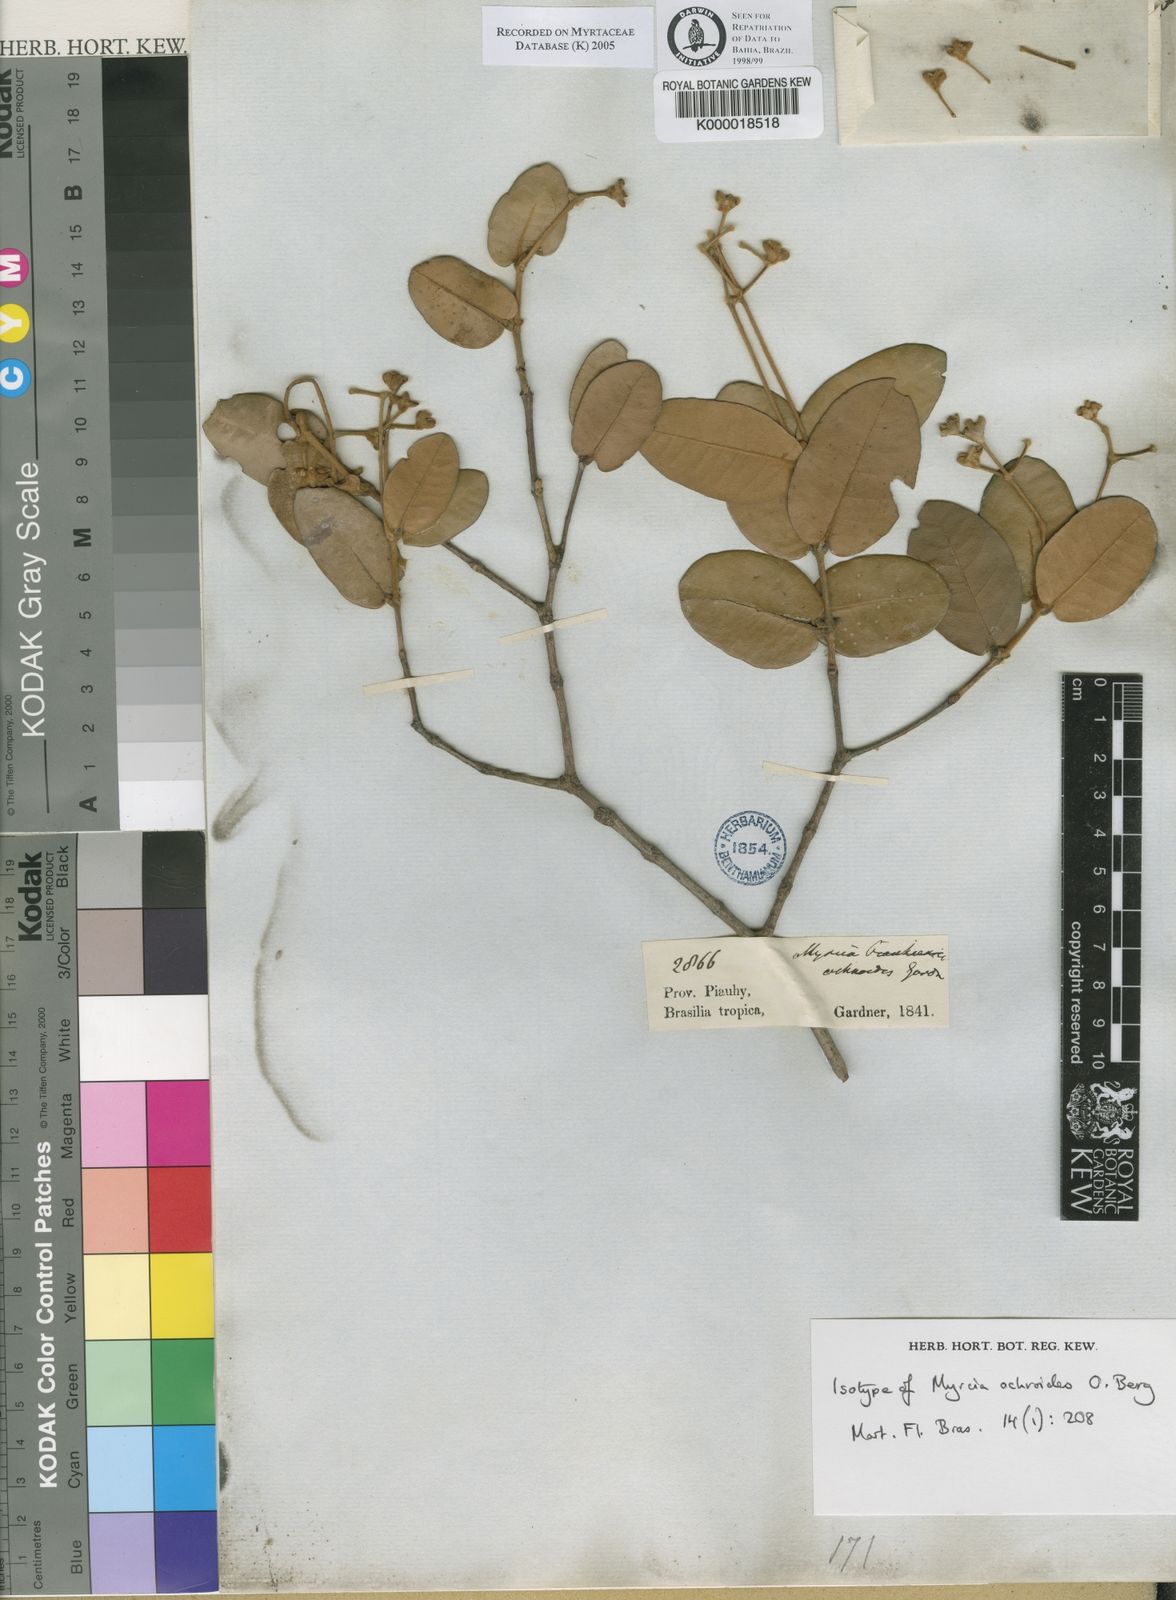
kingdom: Plantae
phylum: Tracheophyta
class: Magnoliopsida
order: Myrtales
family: Myrtaceae
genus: Myrcia
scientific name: Myrcia ochroides
